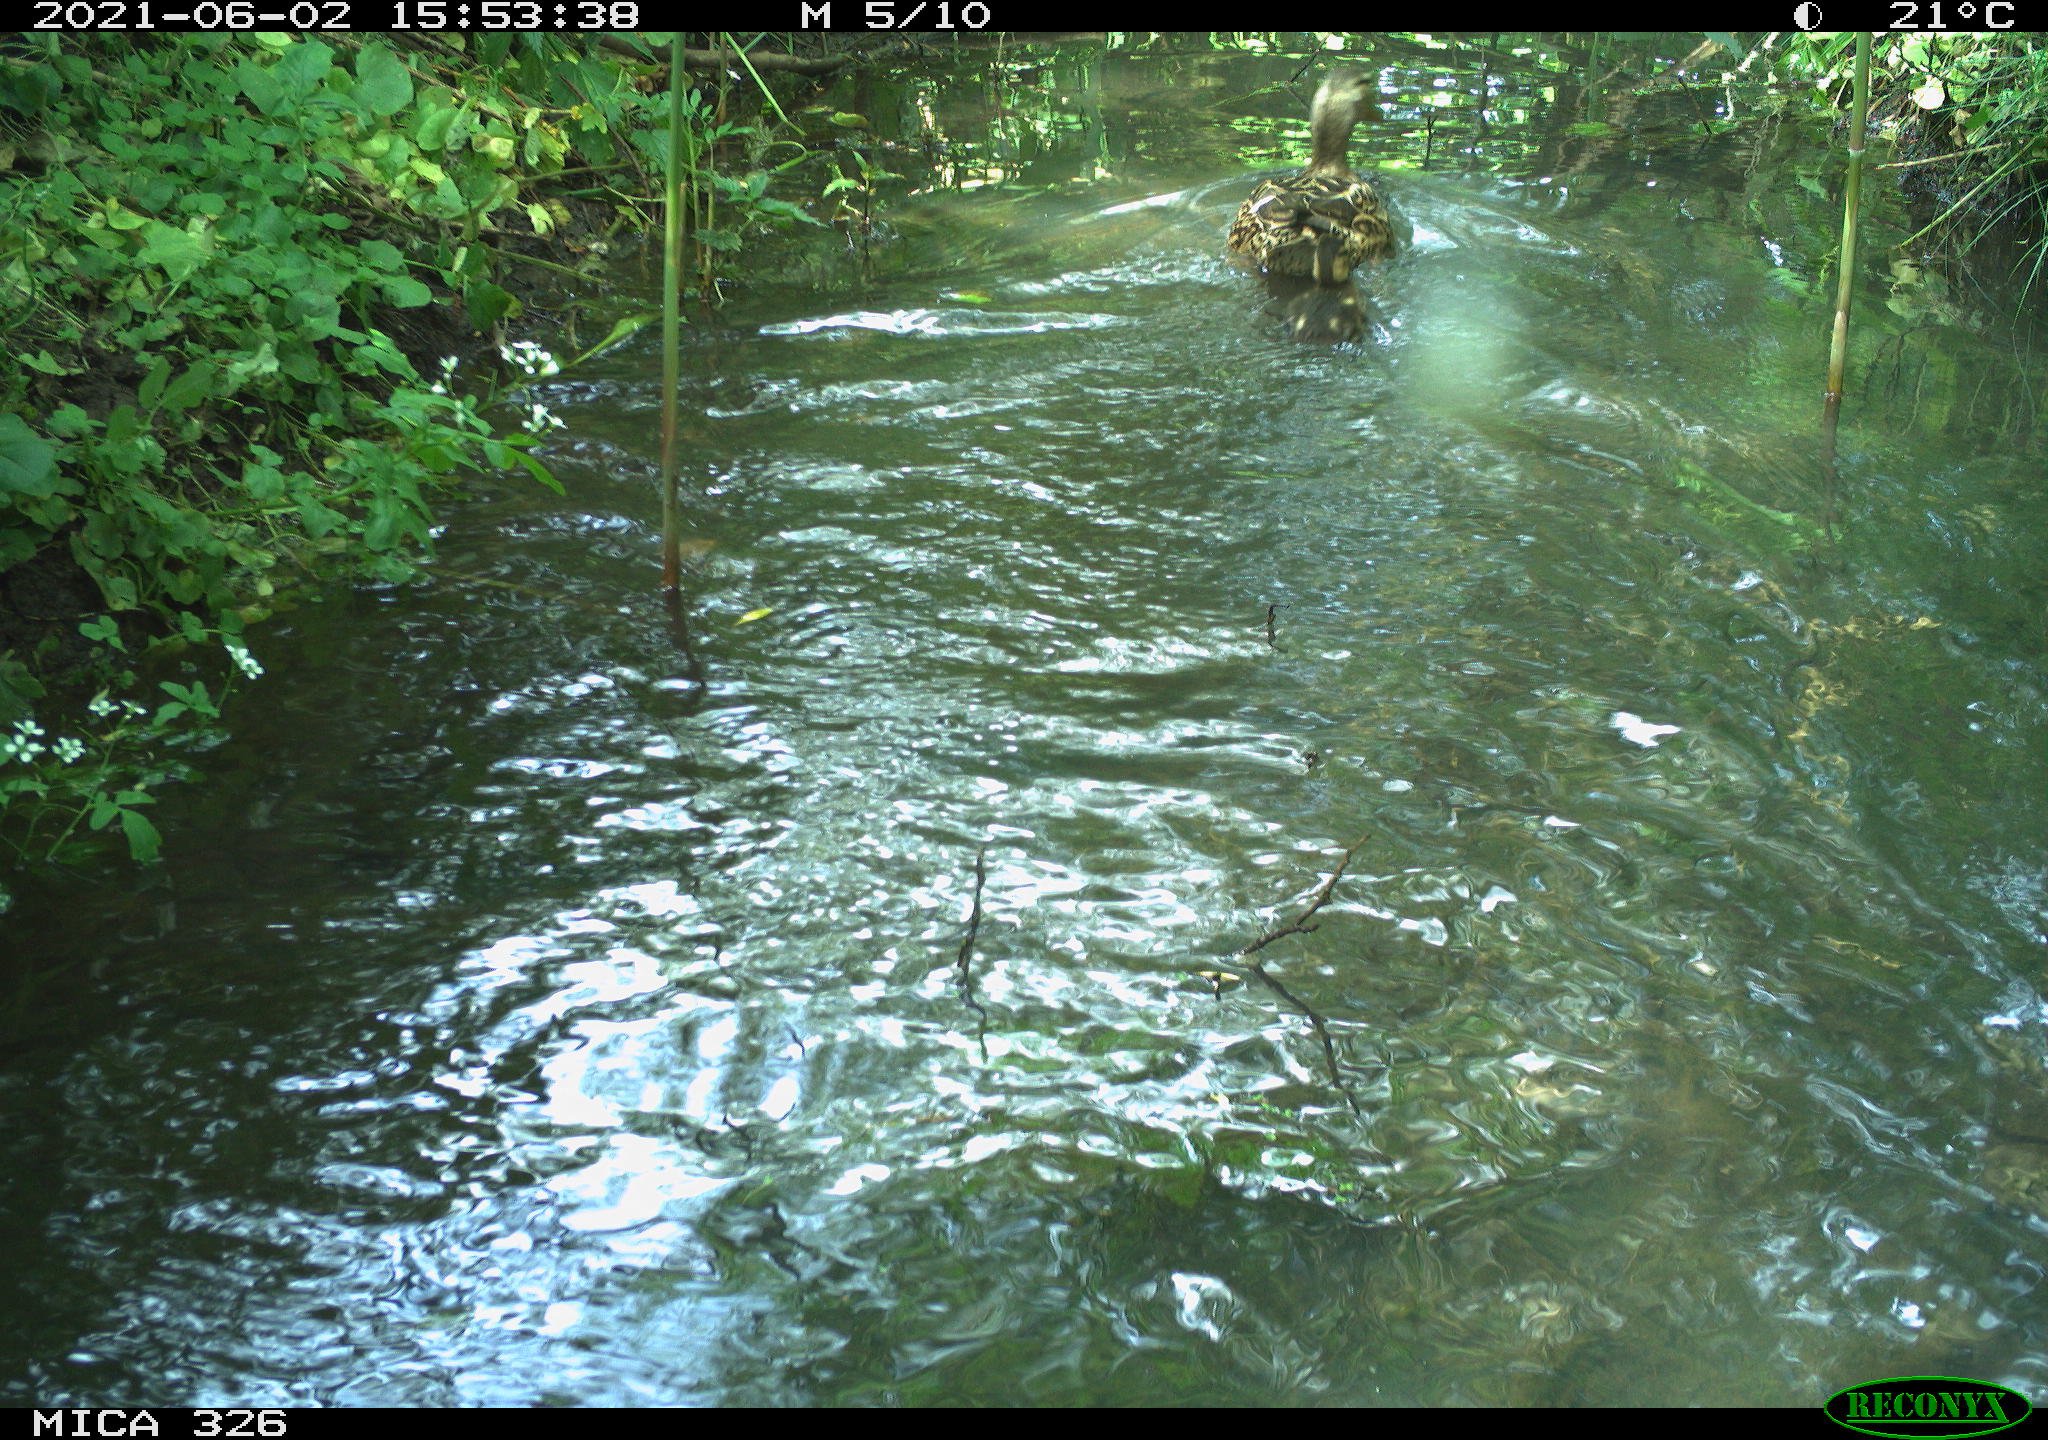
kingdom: Animalia
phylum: Chordata
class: Aves
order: Anseriformes
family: Anatidae
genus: Anas
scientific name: Anas platyrhynchos
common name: Mallard
